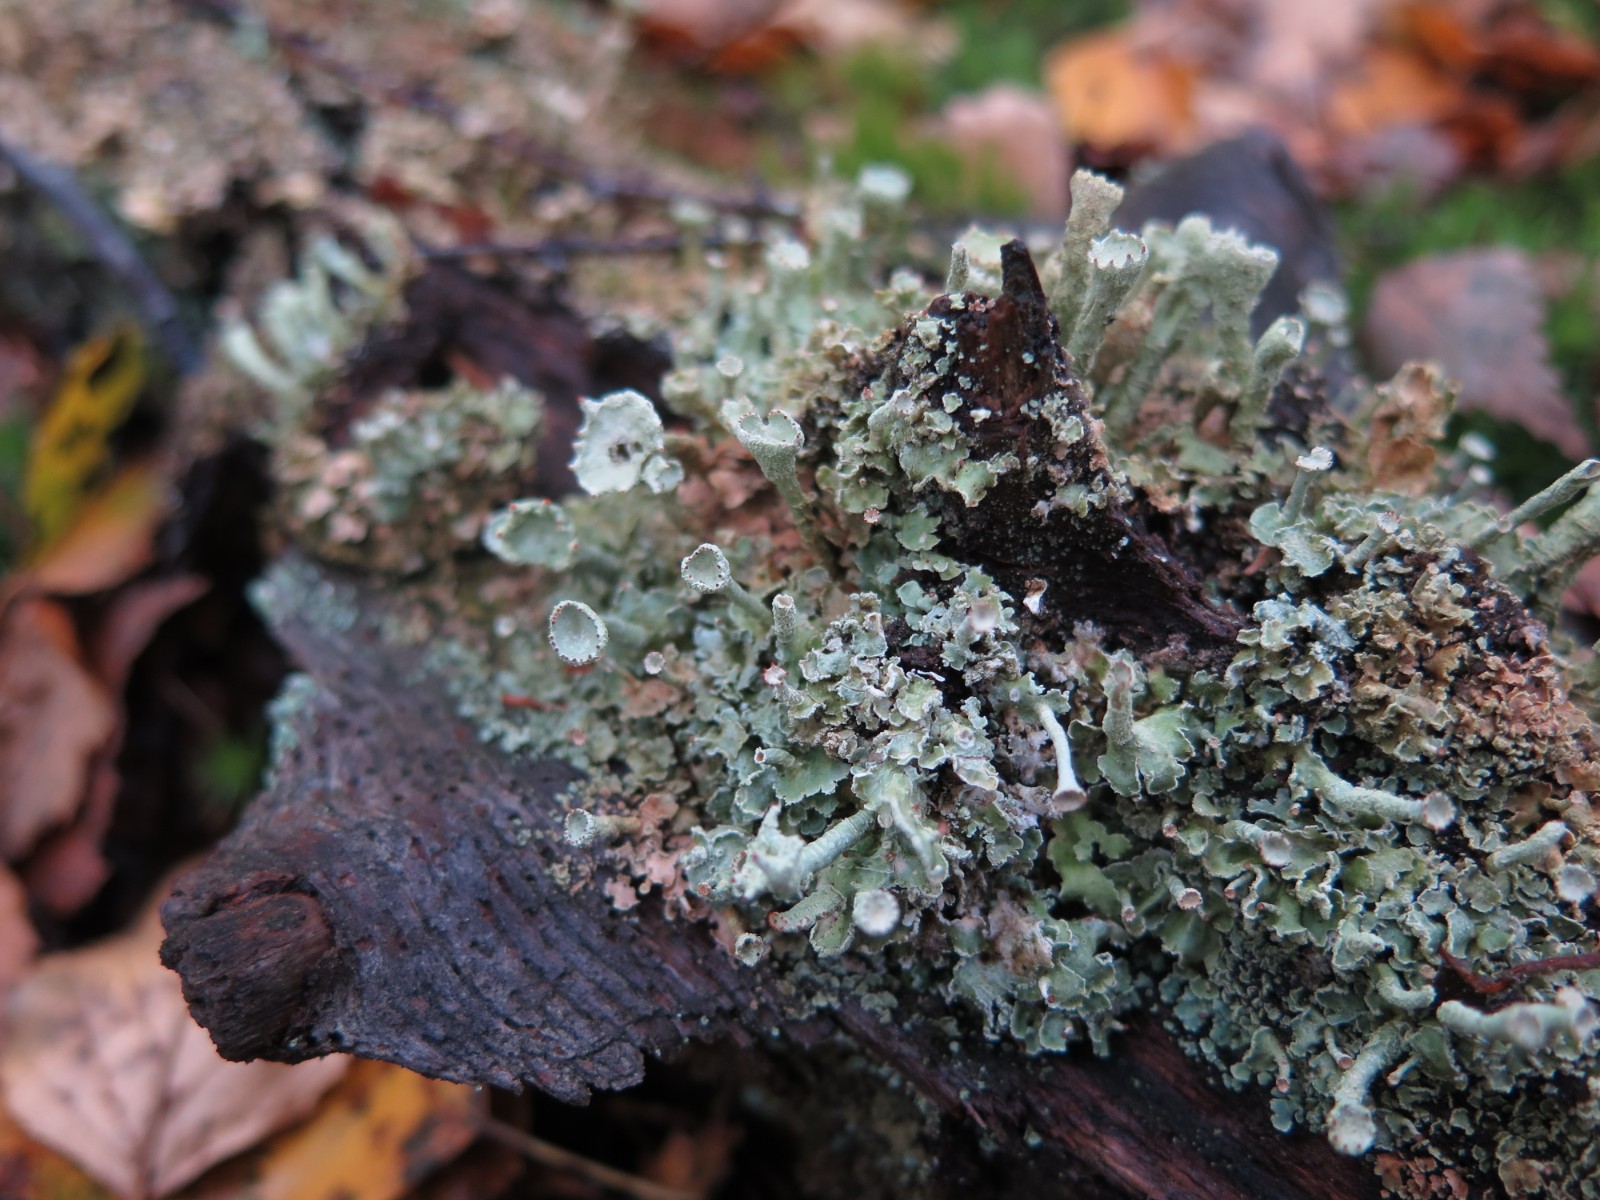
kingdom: Fungi
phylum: Ascomycota
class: Lecanoromycetes
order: Lecanorales
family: Cladoniaceae
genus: Cladonia
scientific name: Cladonia digitata
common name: finger-bægerlav
